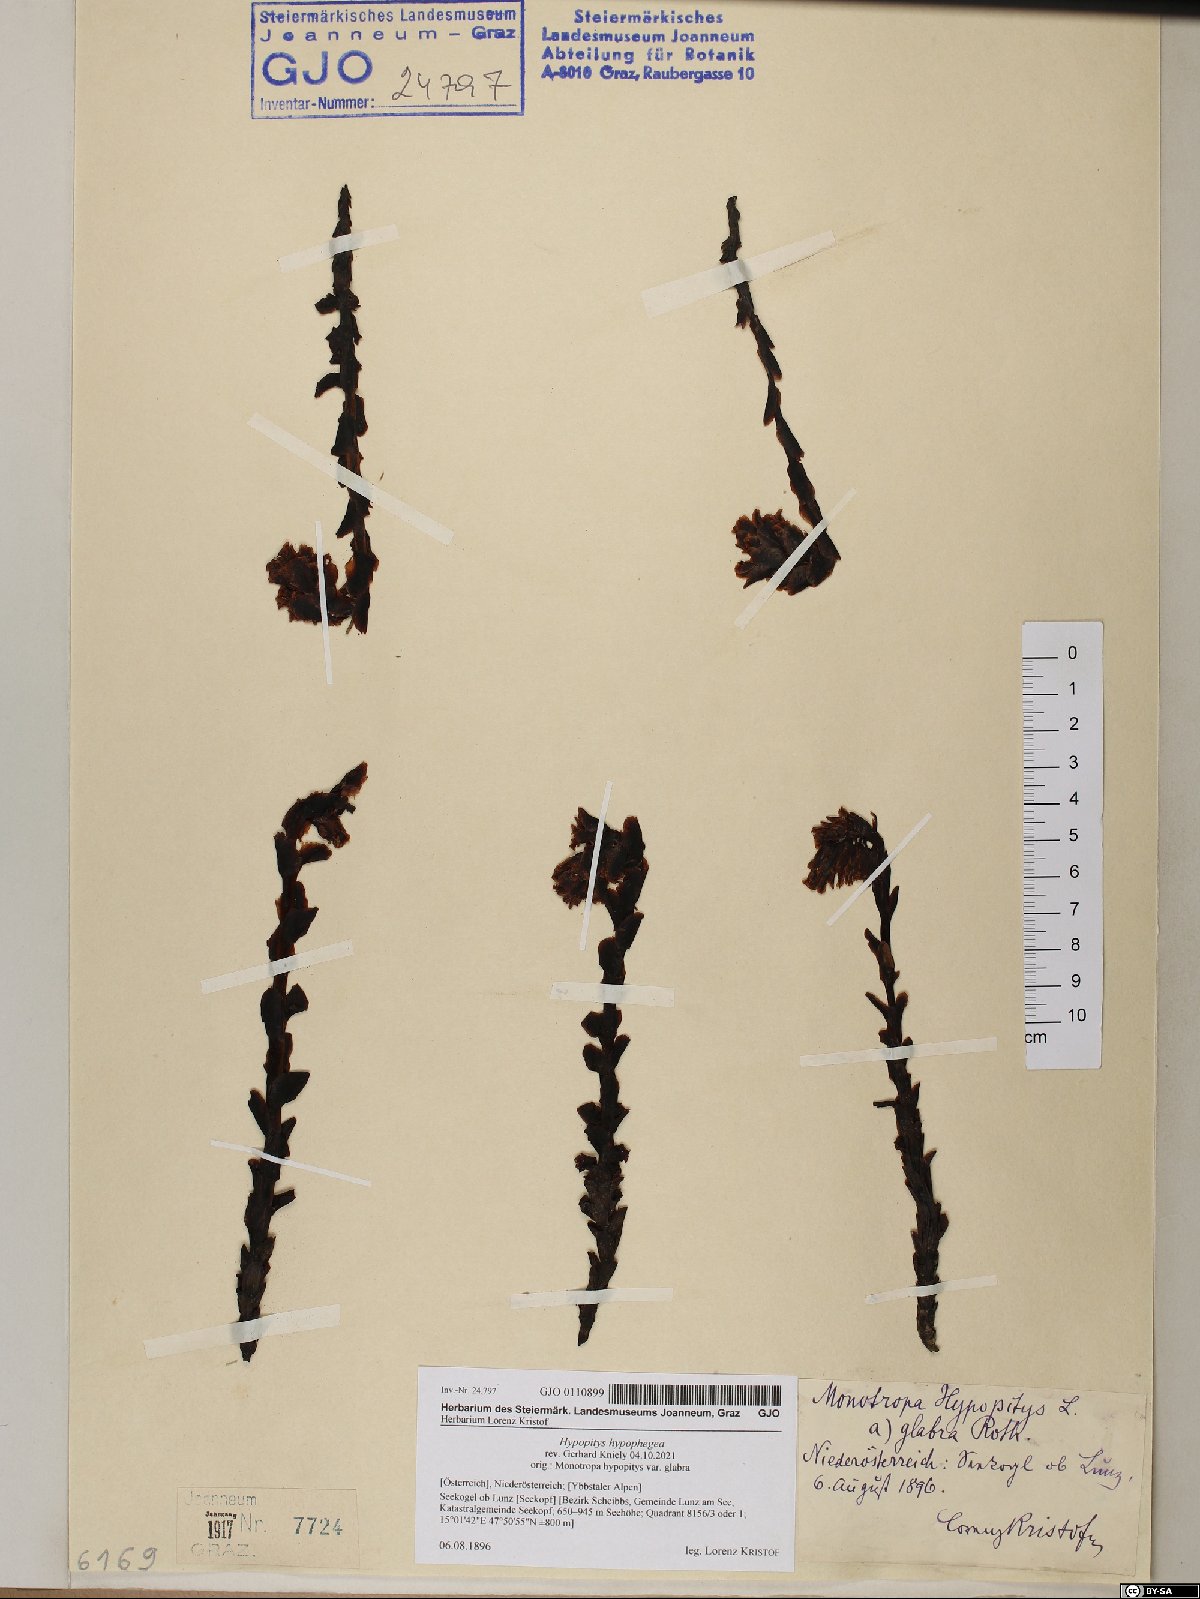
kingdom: Plantae
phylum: Tracheophyta
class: Magnoliopsida
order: Ericales
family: Ericaceae
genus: Hypopitys
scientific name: Hypopitys hypophegea
